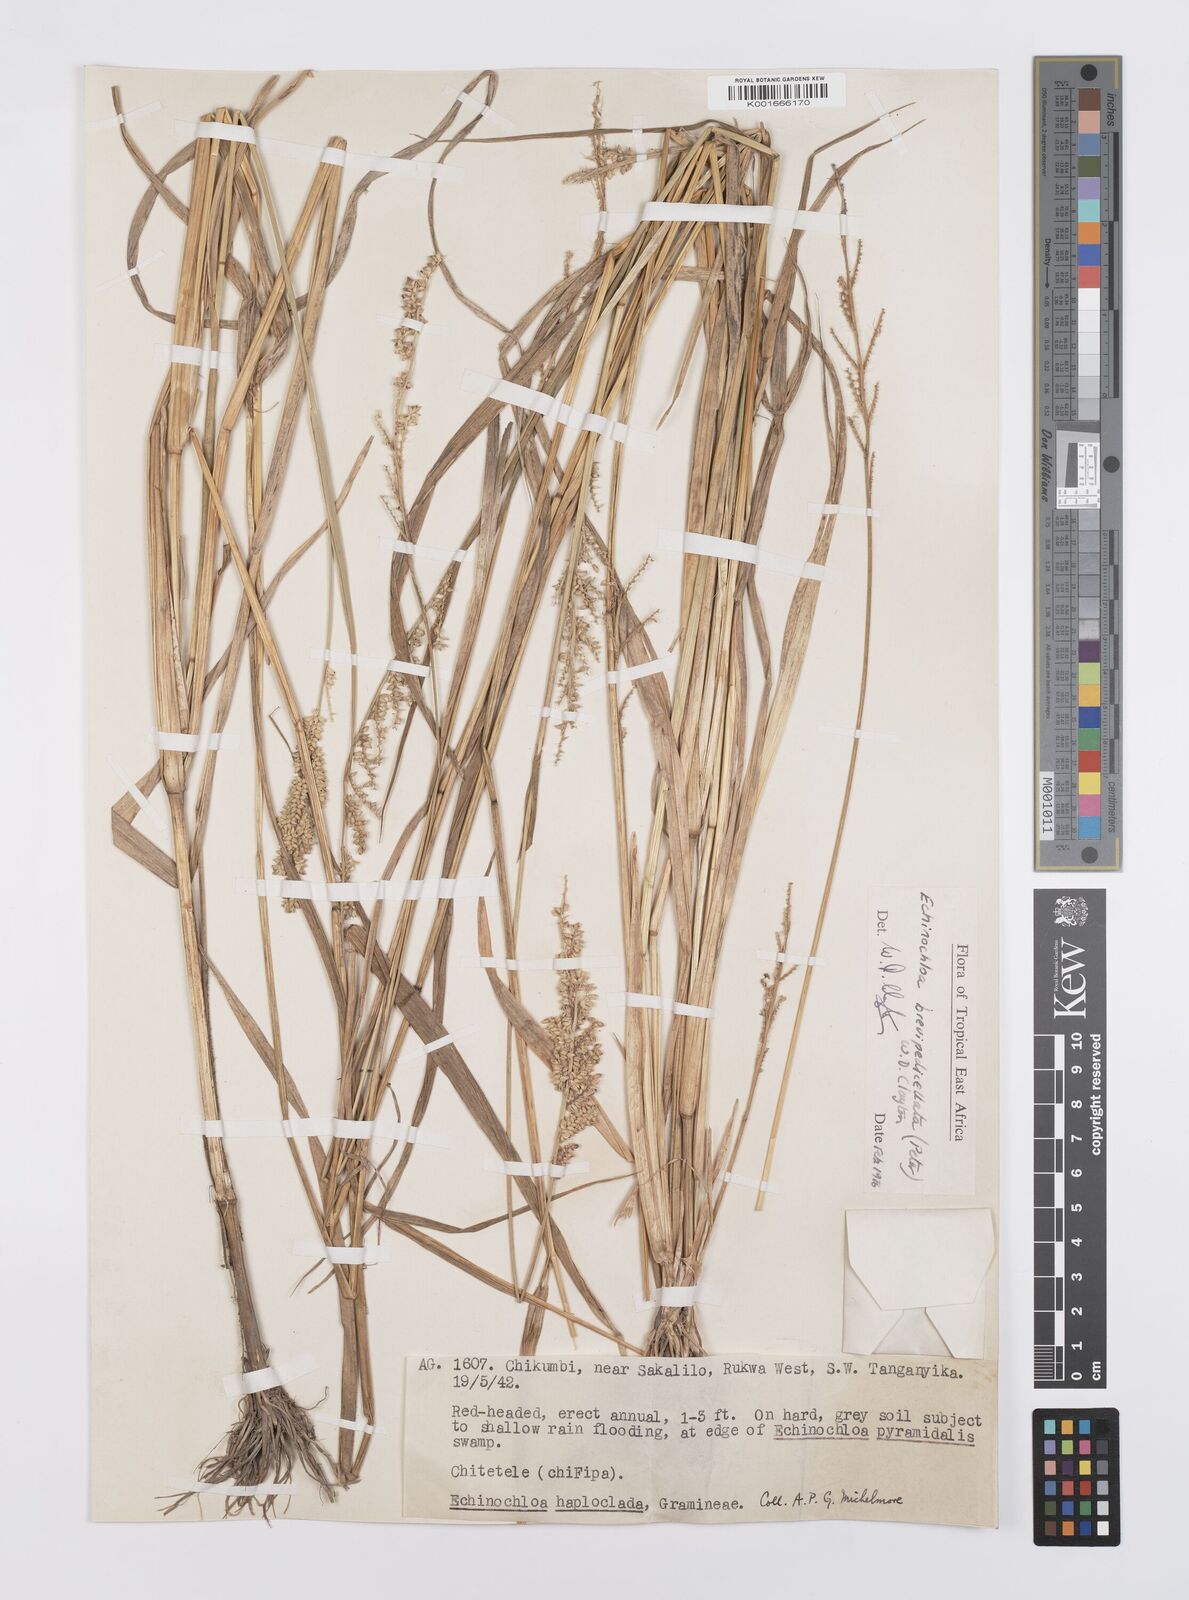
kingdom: Plantae
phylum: Tracheophyta
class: Liliopsida
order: Poales
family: Poaceae
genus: Echinochloa
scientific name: Echinochloa brevipedicellata
